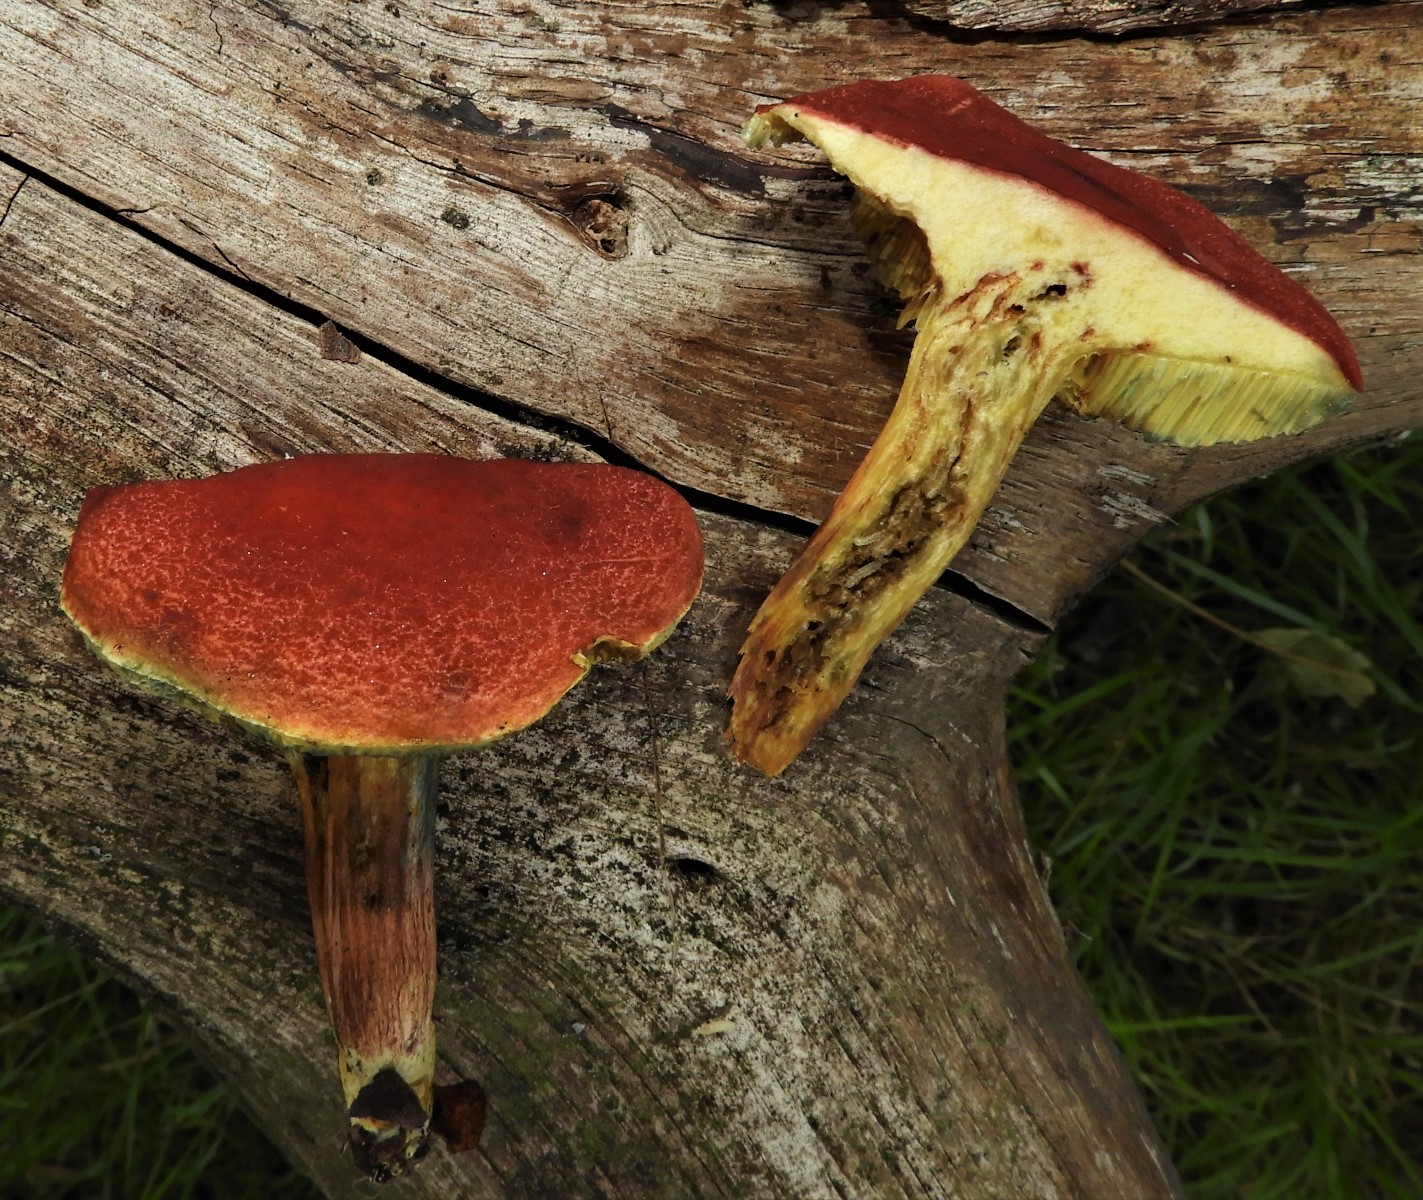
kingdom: Fungi
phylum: Basidiomycota
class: Agaricomycetes
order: Boletales
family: Boletaceae
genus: Hortiboletus
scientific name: Hortiboletus rubellus
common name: blodrød rørhat
